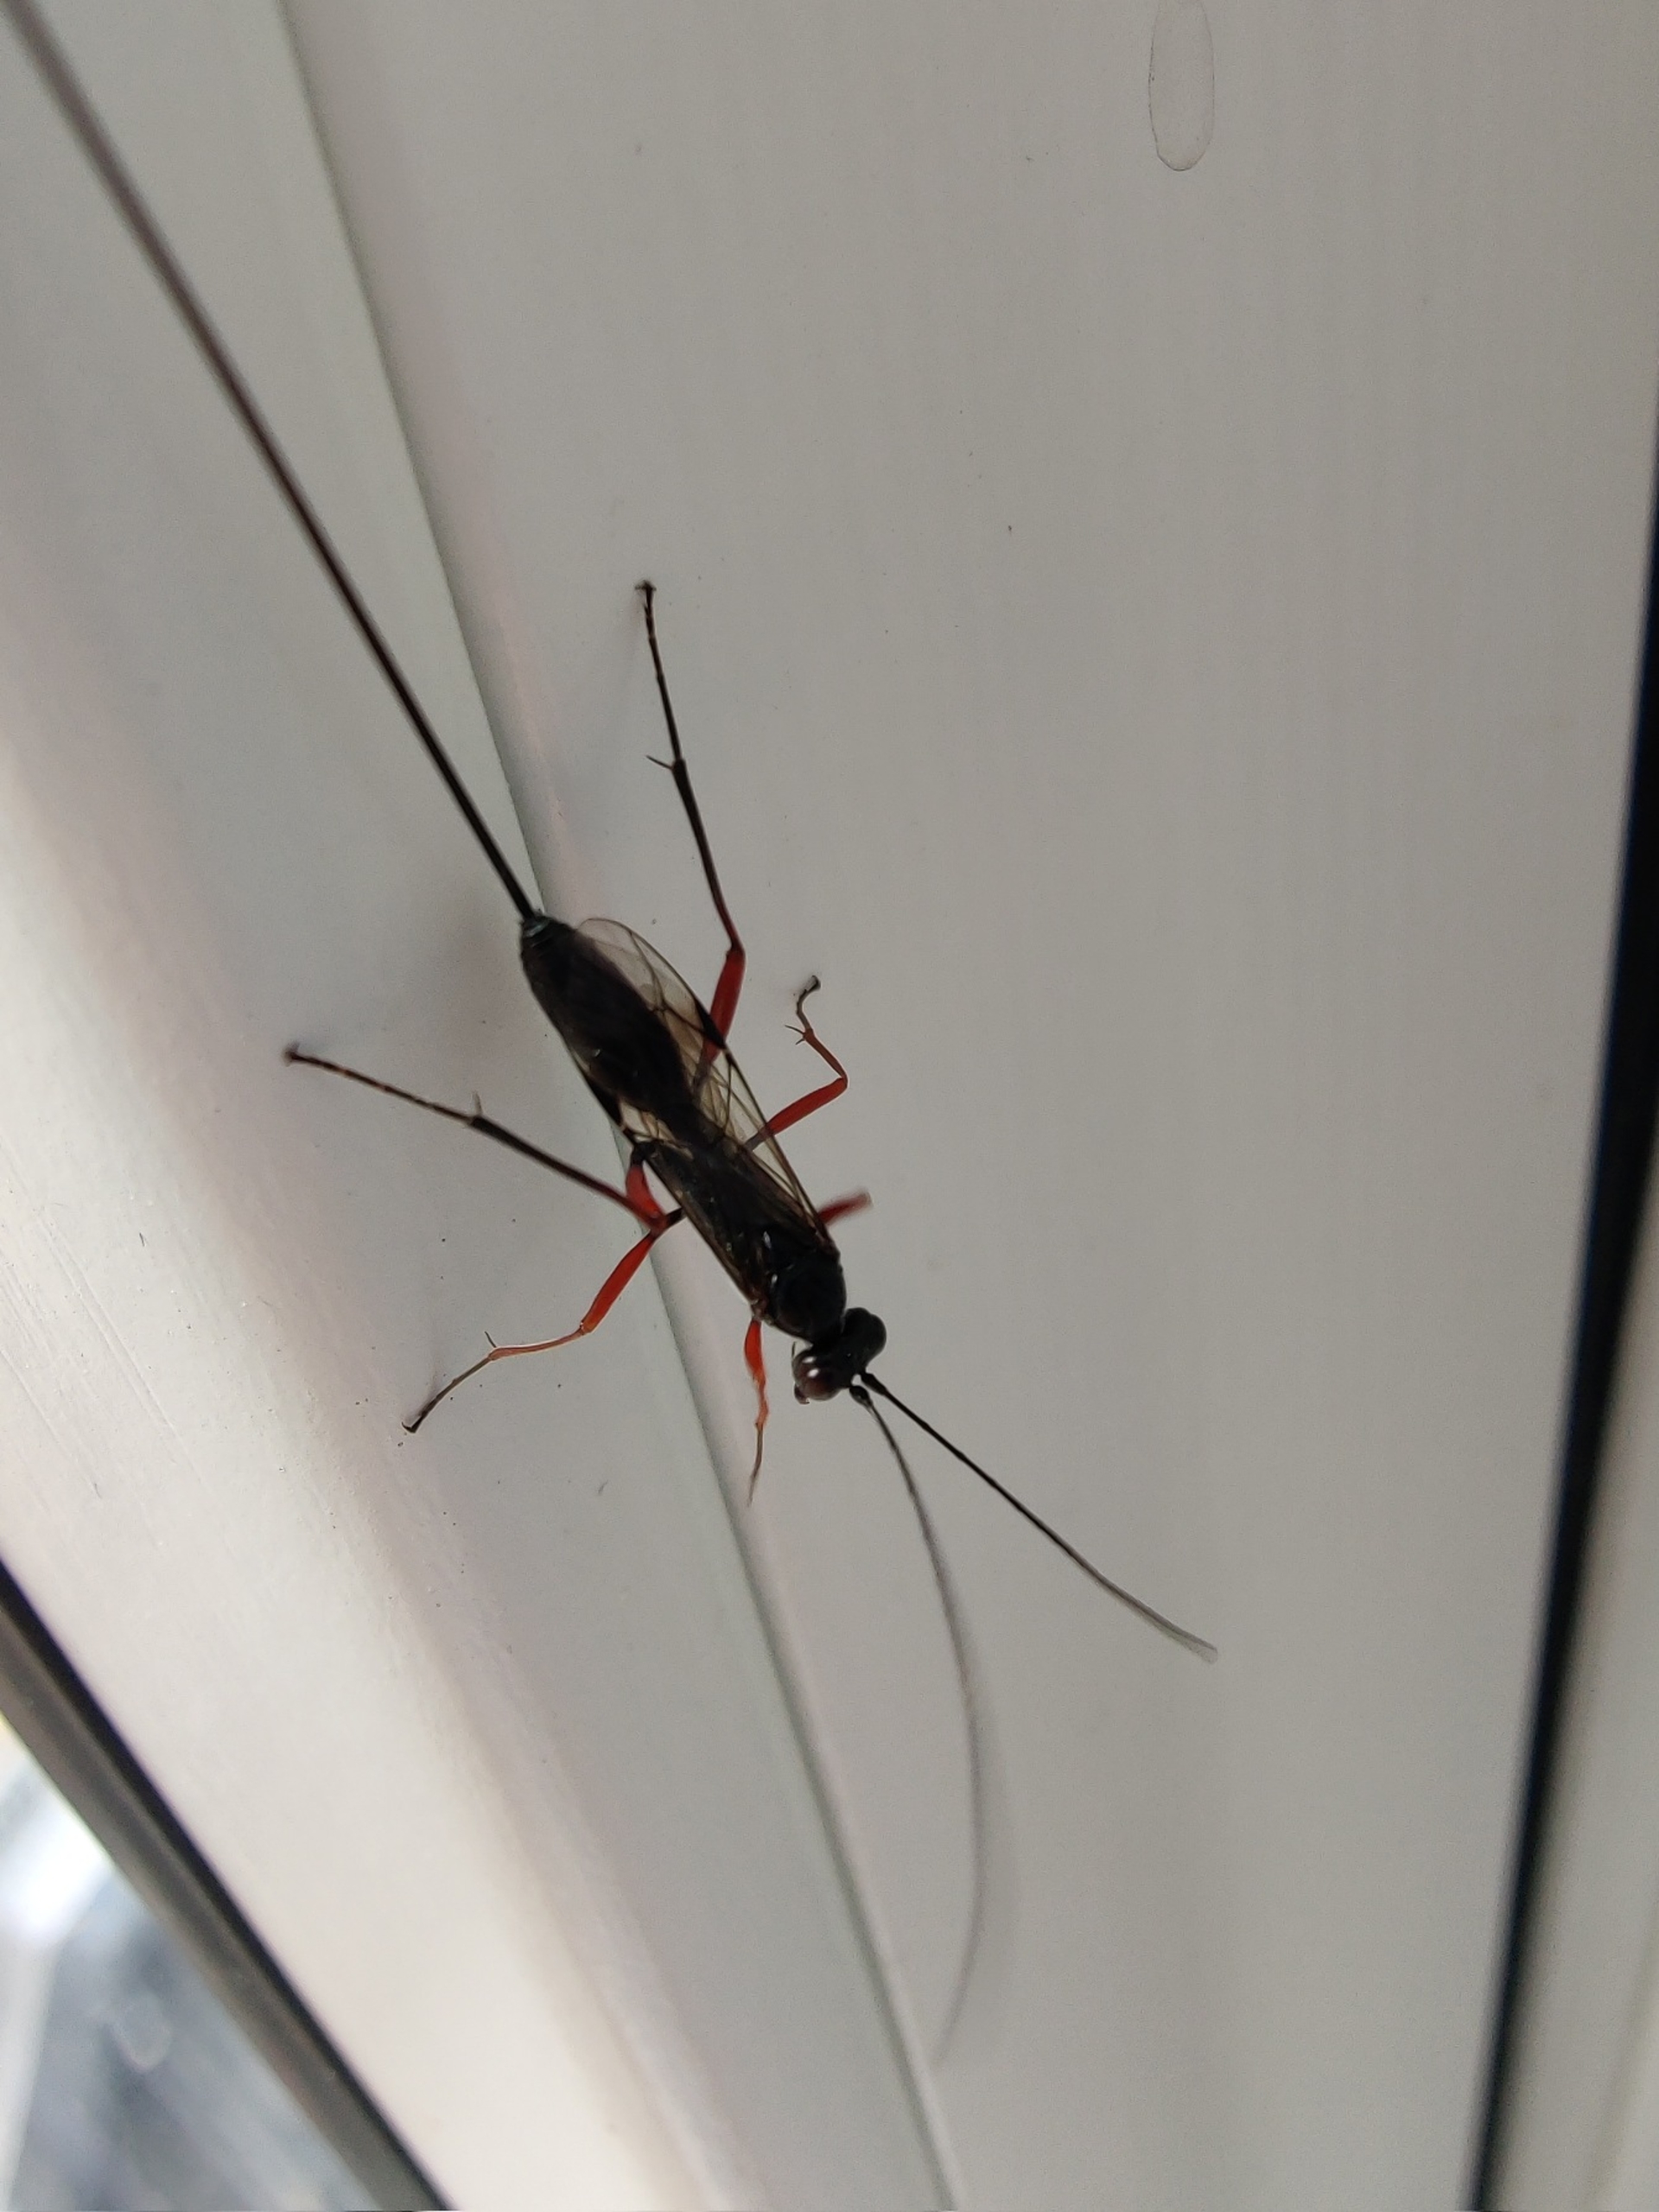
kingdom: Animalia
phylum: Arthropoda
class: Insecta
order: Hymenoptera
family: Ichneumonidae
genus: Stenarella
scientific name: Stenarella domator
